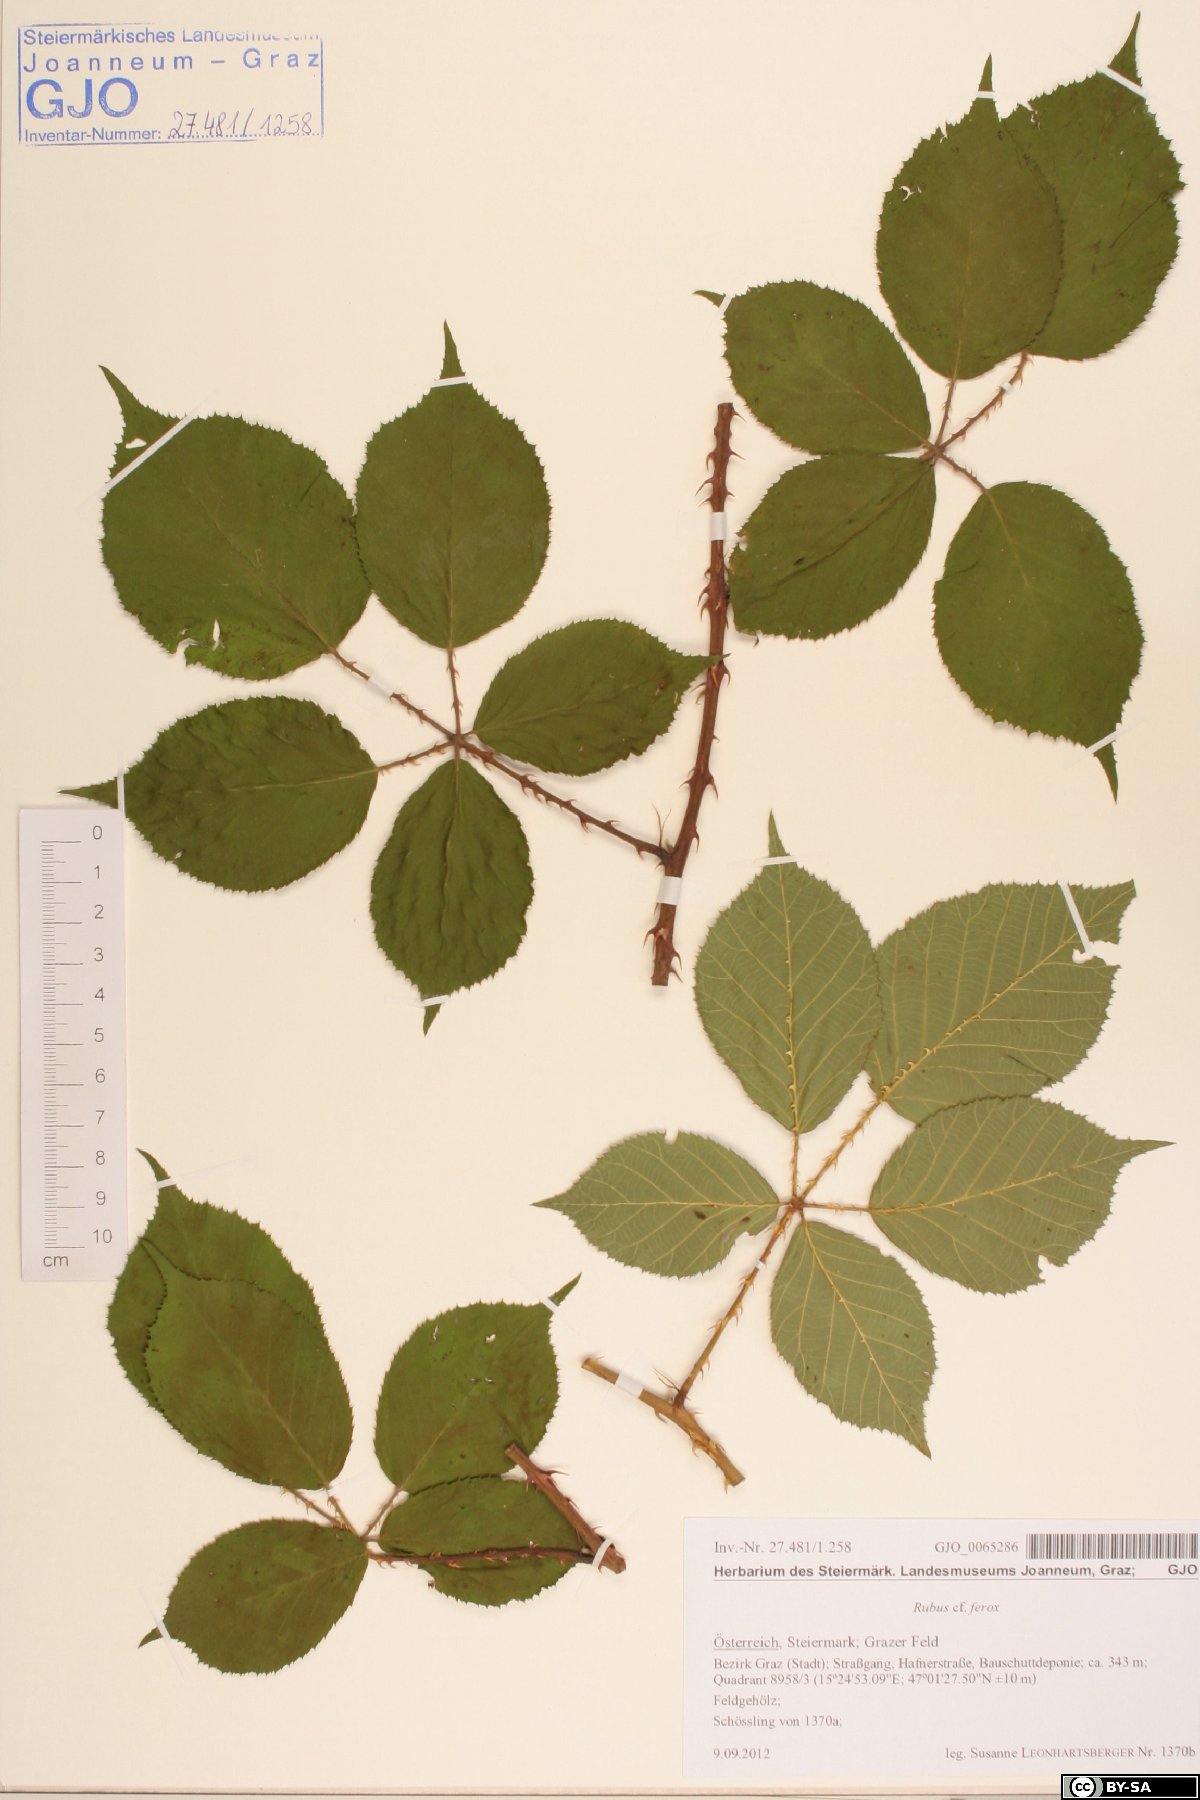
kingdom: Plantae
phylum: Tracheophyta
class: Magnoliopsida
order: Rosales
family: Rosaceae
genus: Rubus
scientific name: Rubus ferox
